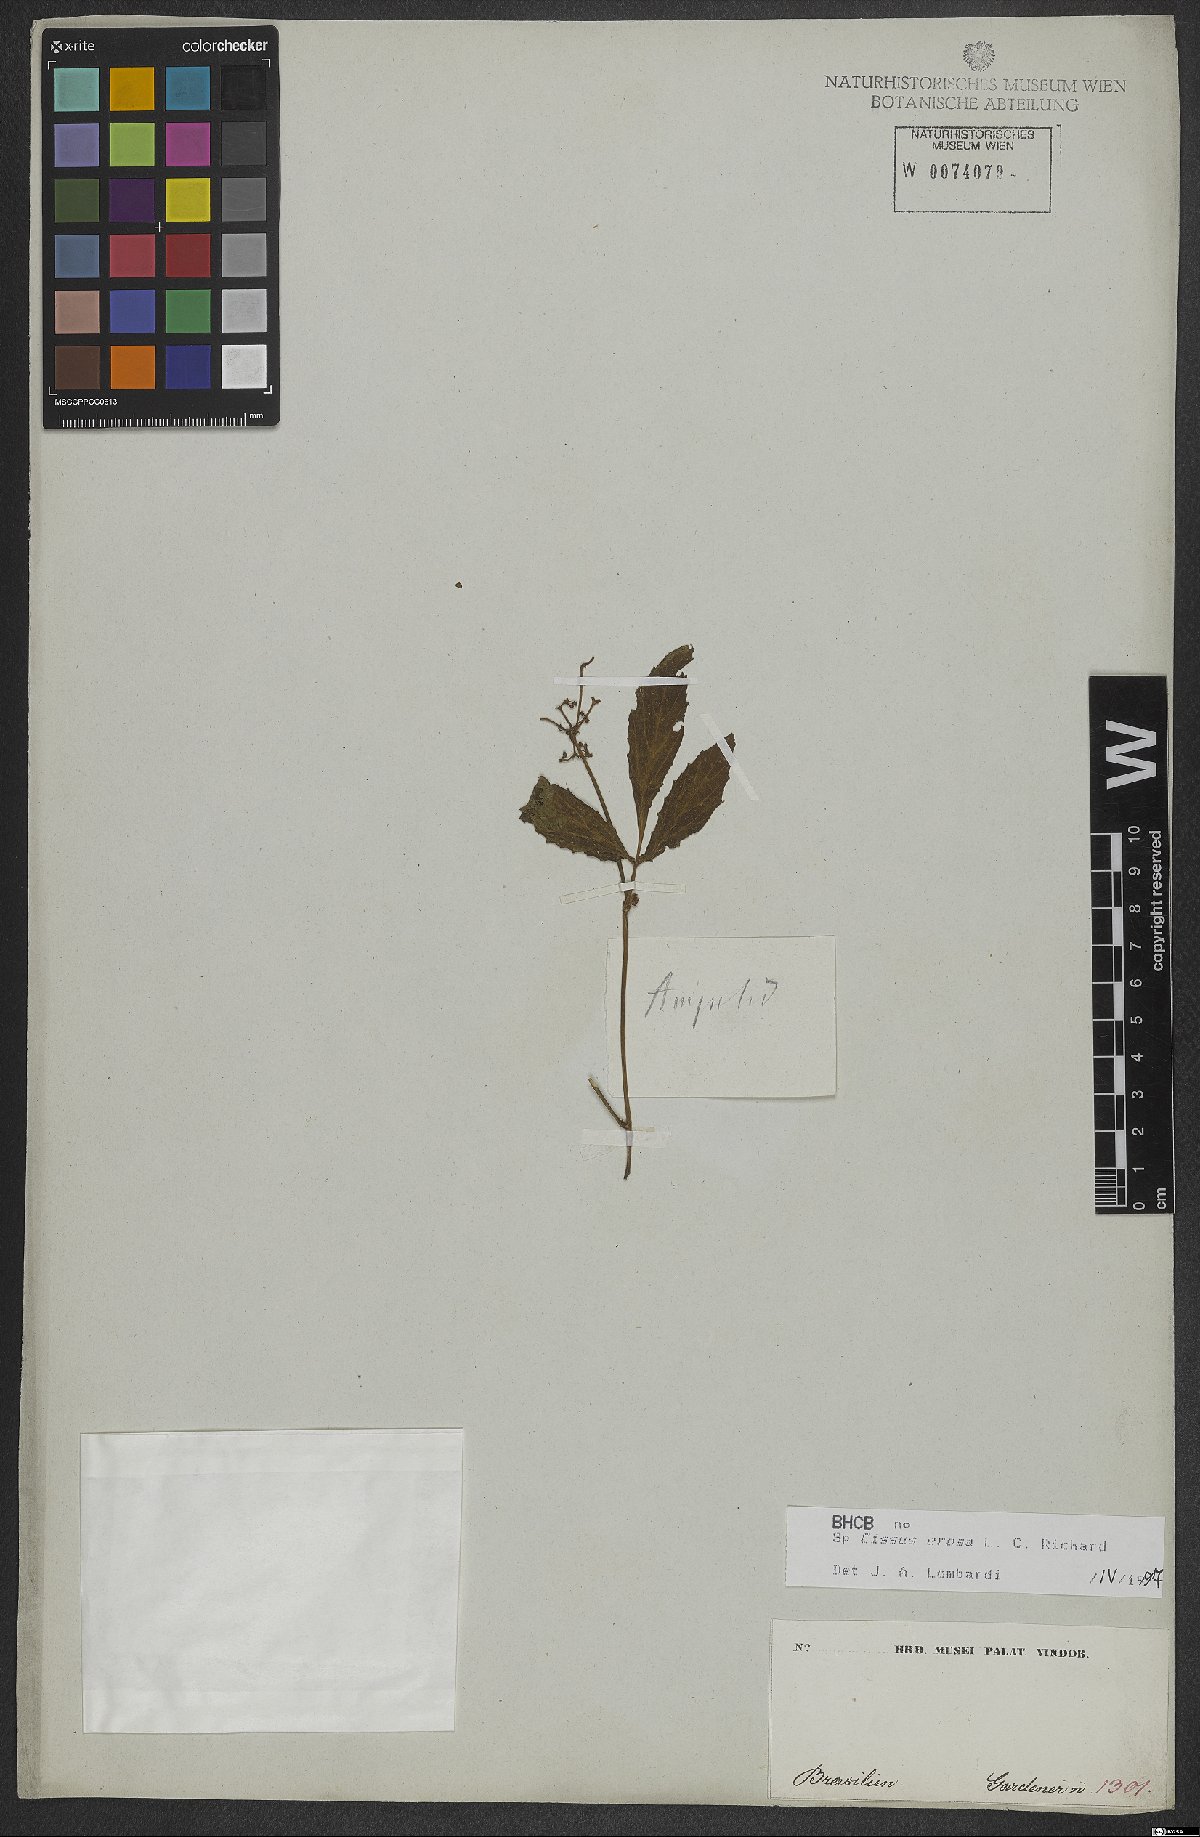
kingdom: Plantae
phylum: Tracheophyta
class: Magnoliopsida
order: Vitales
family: Vitaceae
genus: Cissus
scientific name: Cissus erosa
